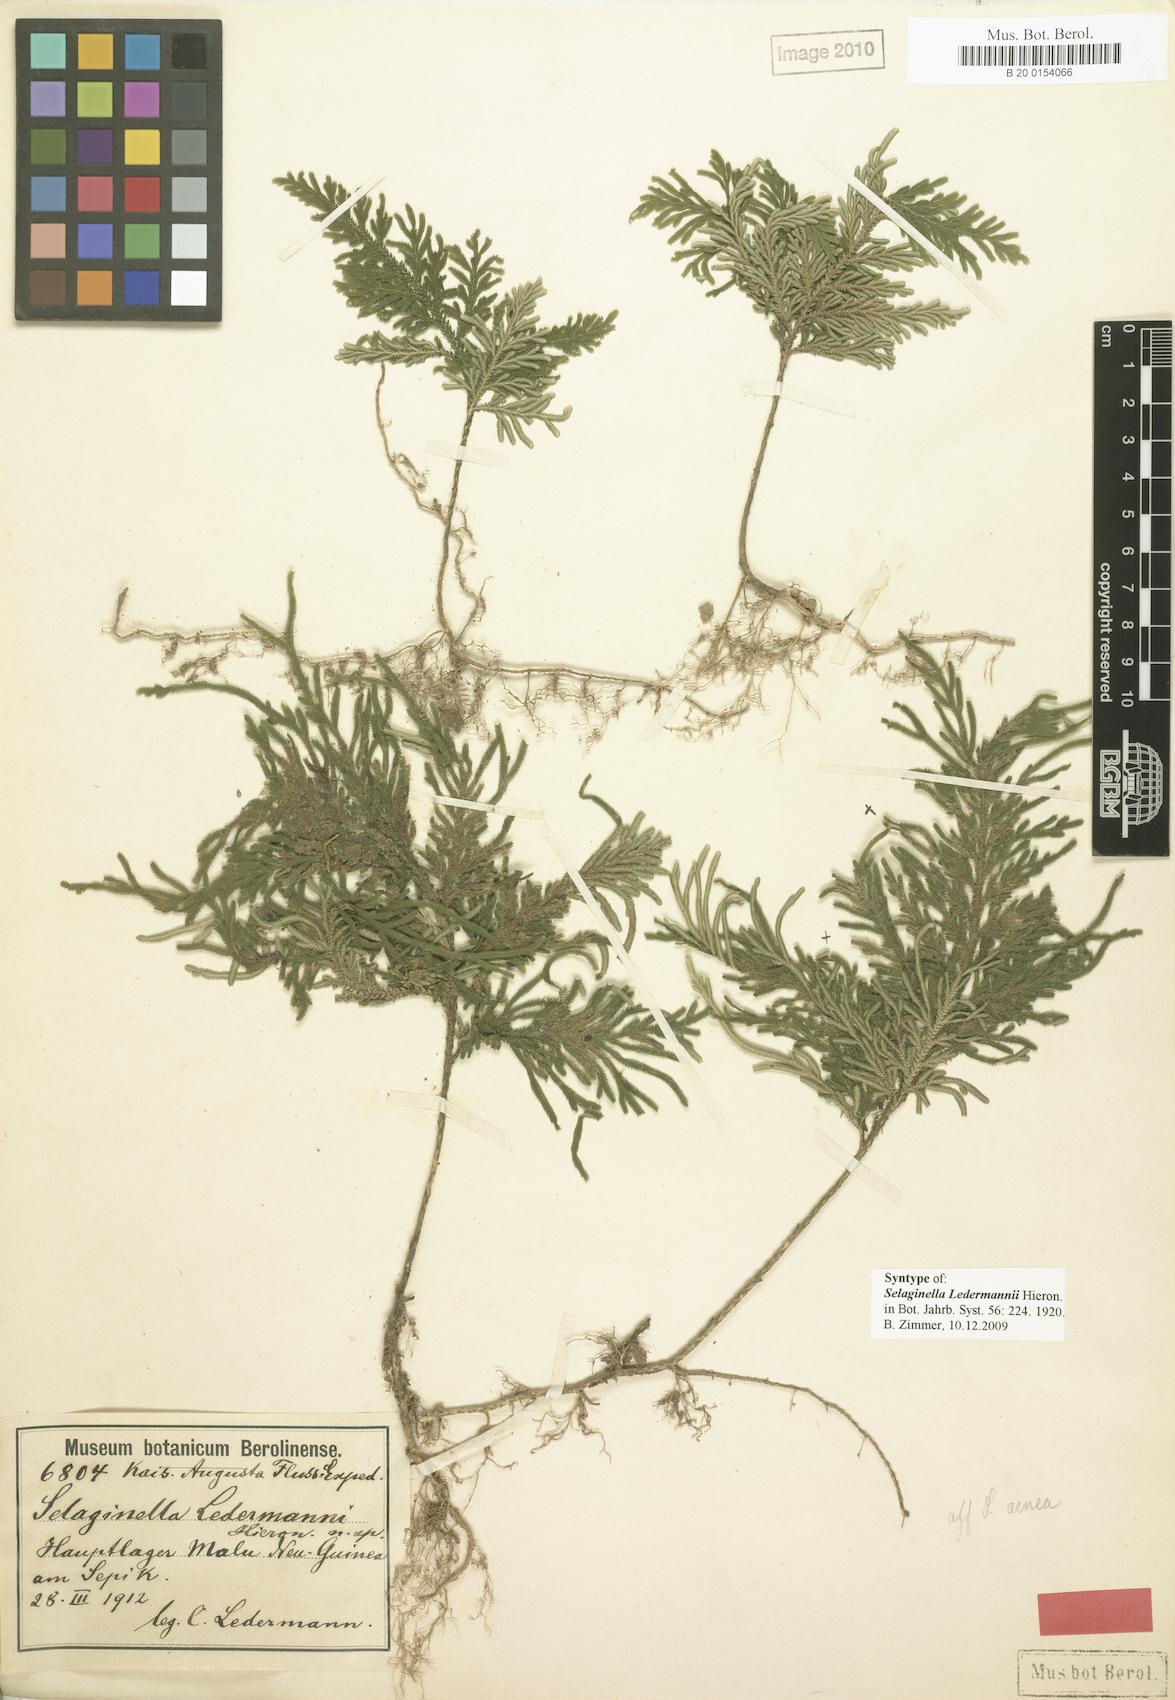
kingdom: Plantae
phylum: Tracheophyta
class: Lycopodiopsida
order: Selaginellales
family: Selaginellaceae
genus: Selaginella
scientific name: Selaginella ledermannii
